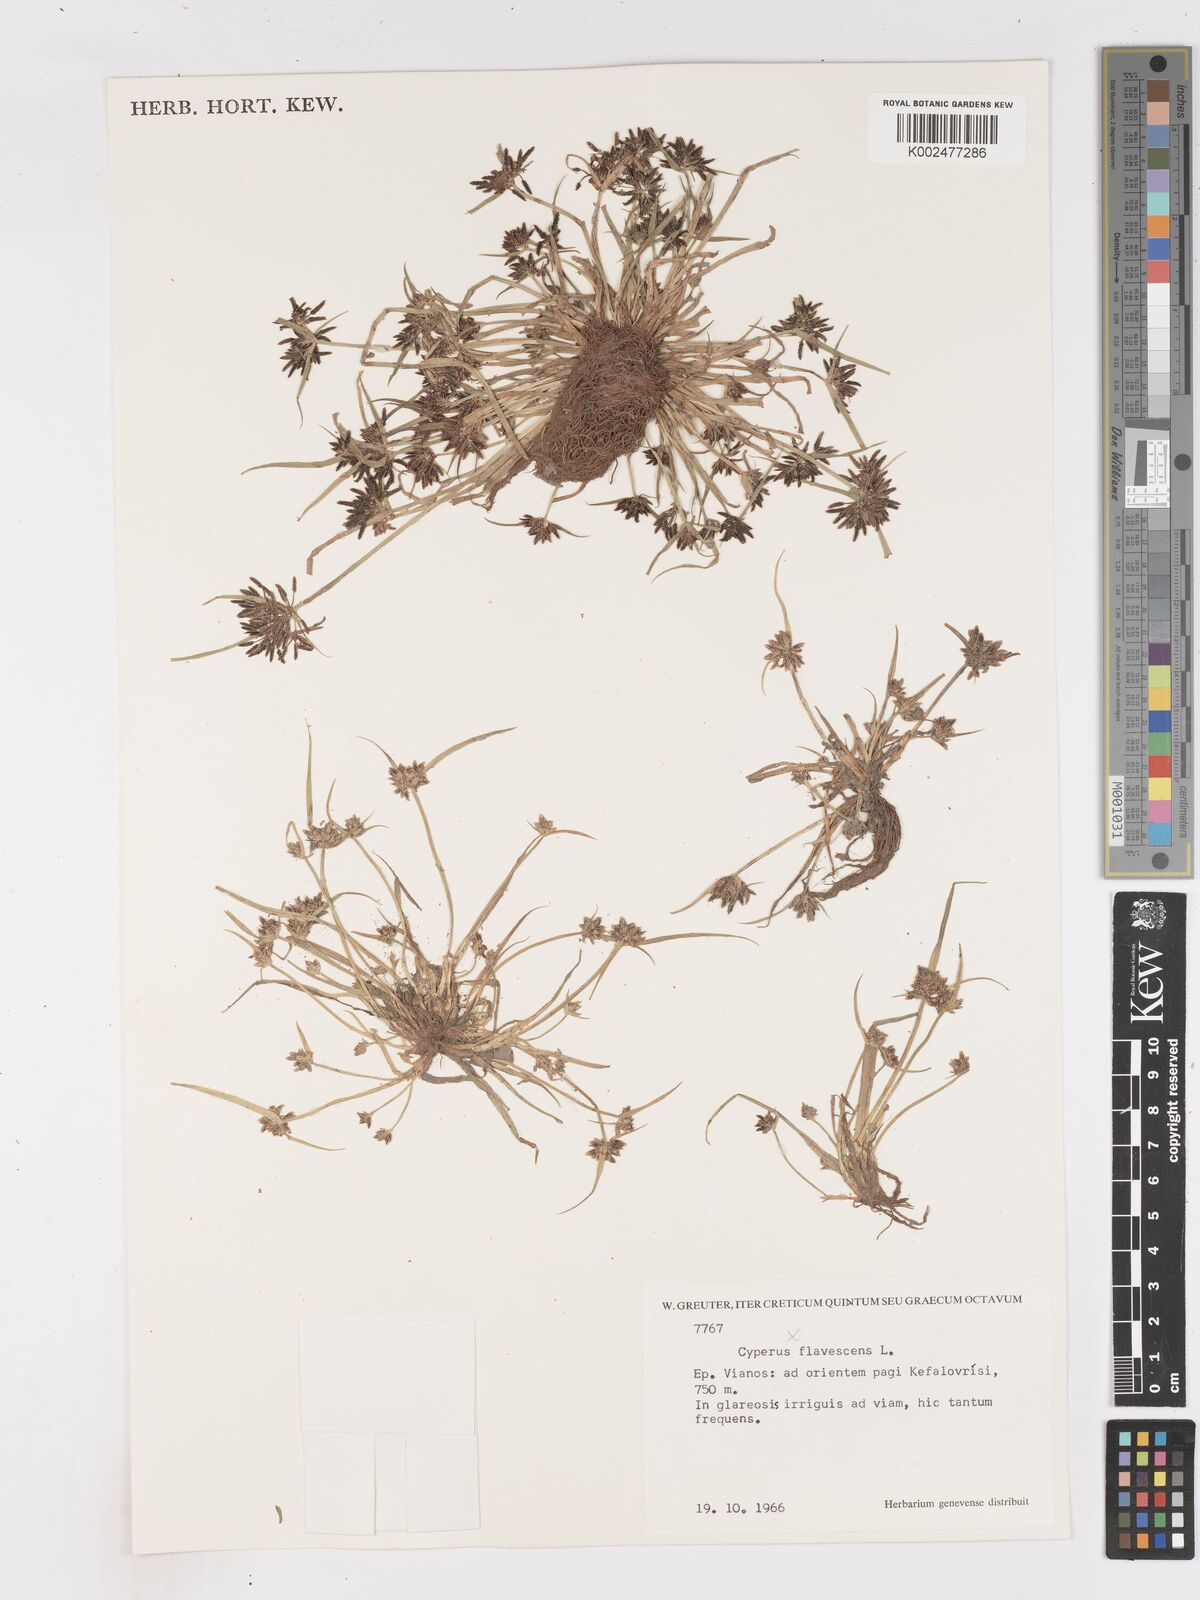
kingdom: Plantae
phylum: Tracheophyta
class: Liliopsida
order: Poales
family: Cyperaceae
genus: Cyperus
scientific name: Cyperus fuscus
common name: Brown galingale
